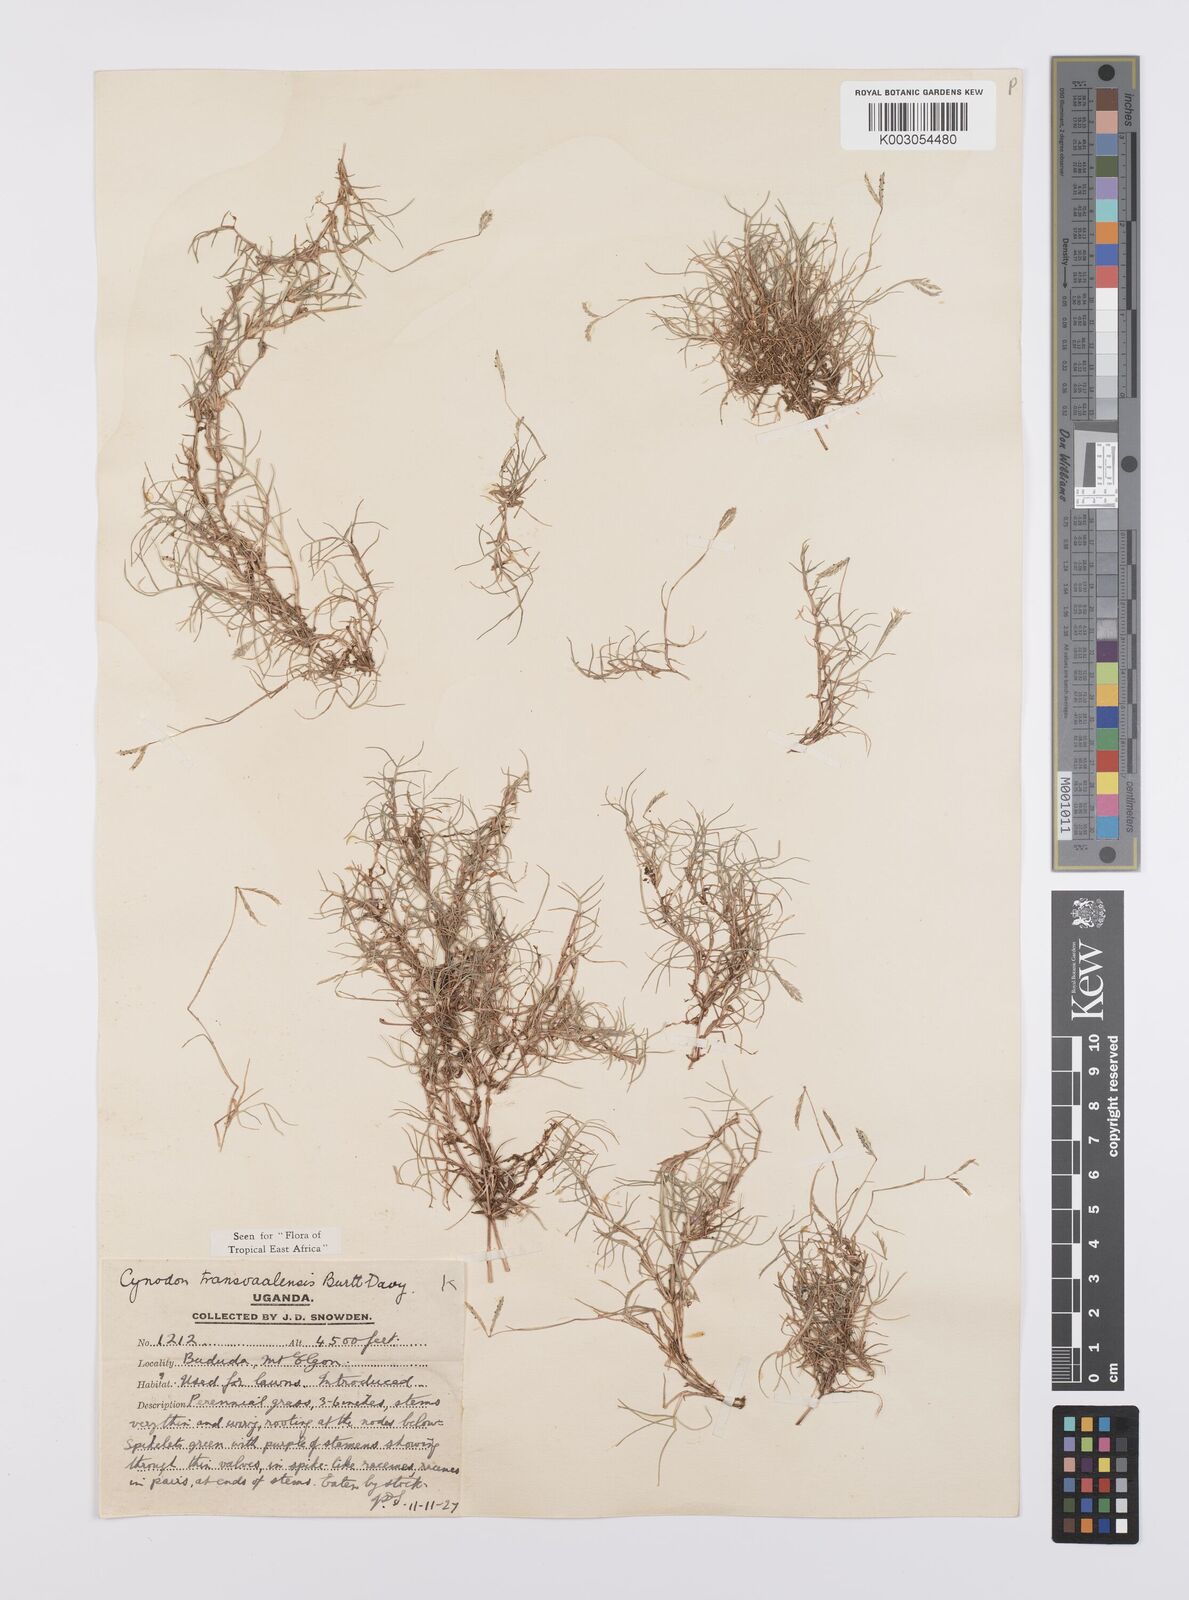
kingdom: Plantae
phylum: Tracheophyta
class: Liliopsida
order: Poales
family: Poaceae
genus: Cynodon
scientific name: Cynodon transvaalensis
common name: African bermuda grass
